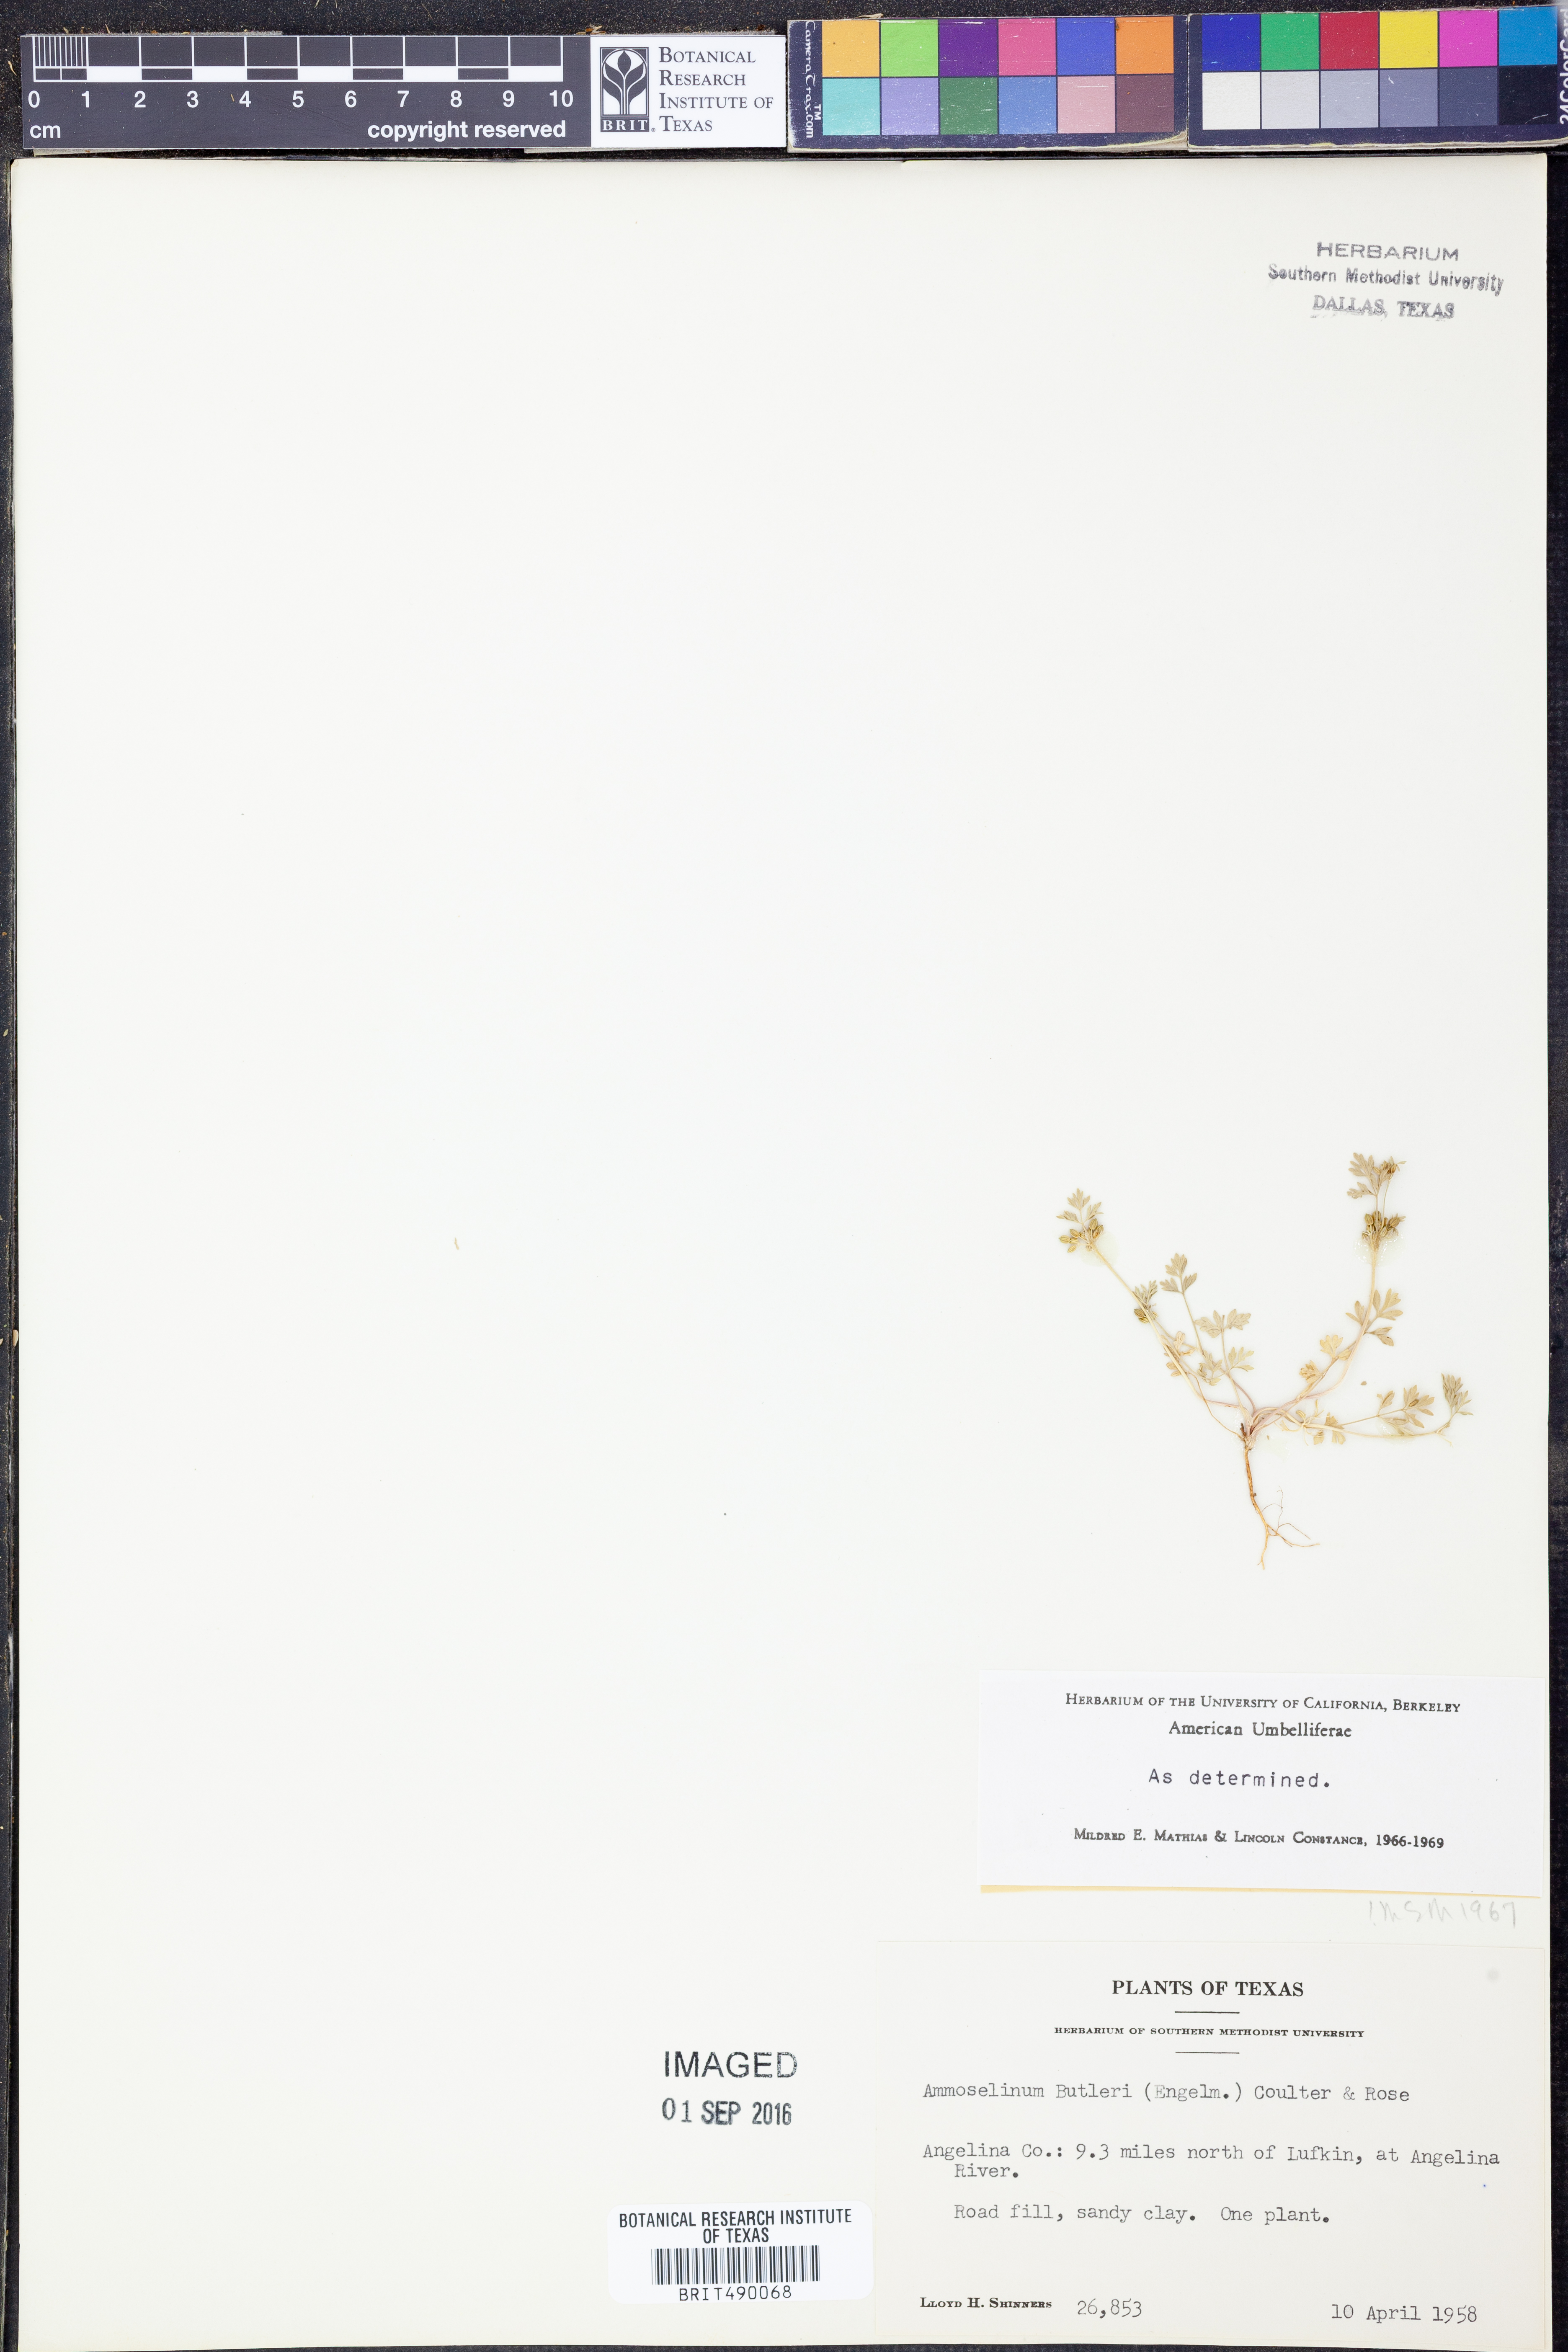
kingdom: Plantae
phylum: Tracheophyta
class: Magnoliopsida
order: Apiales
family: Apiaceae
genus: Ammoselinum
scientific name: Ammoselinum butleri
